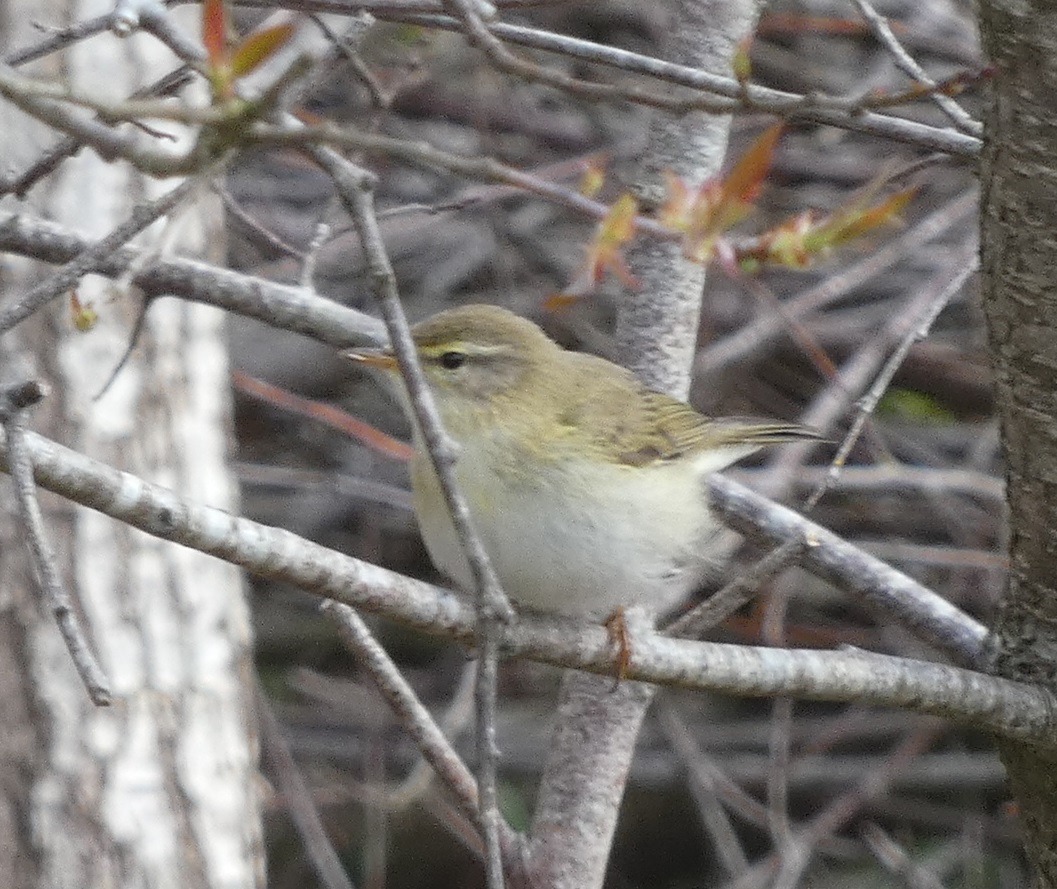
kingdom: Animalia
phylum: Chordata
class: Aves
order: Passeriformes
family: Phylloscopidae
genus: Phylloscopus
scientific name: Phylloscopus trochilus
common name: Løvsanger
